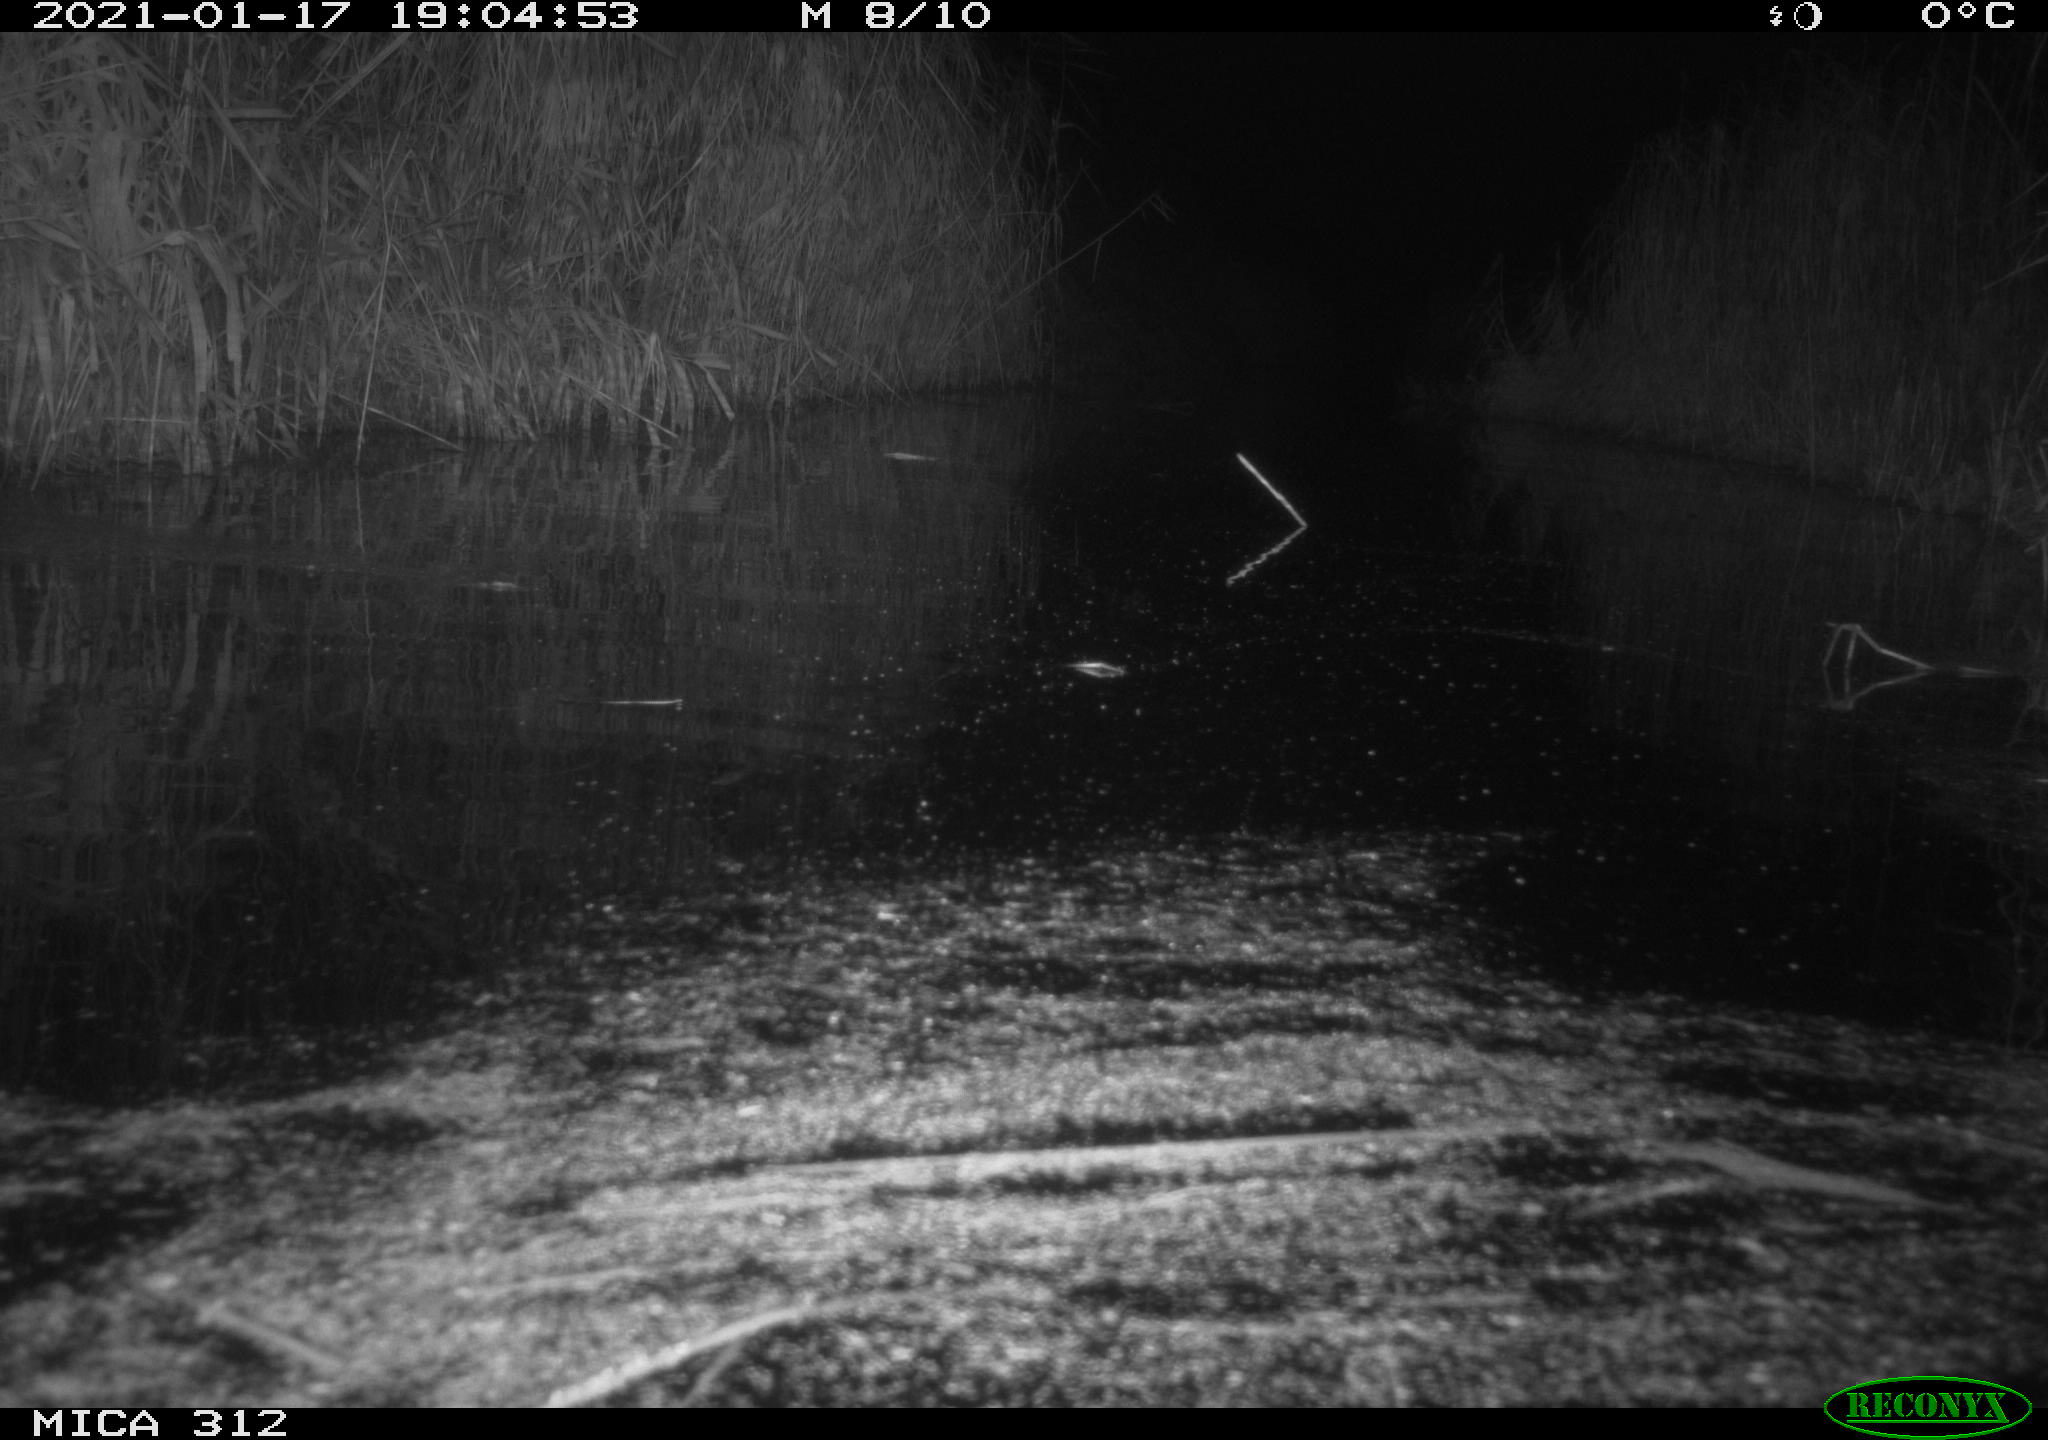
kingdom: Animalia
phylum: Chordata
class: Mammalia
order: Rodentia
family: Muridae
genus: Rattus
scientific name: Rattus norvegicus
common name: Brown rat
